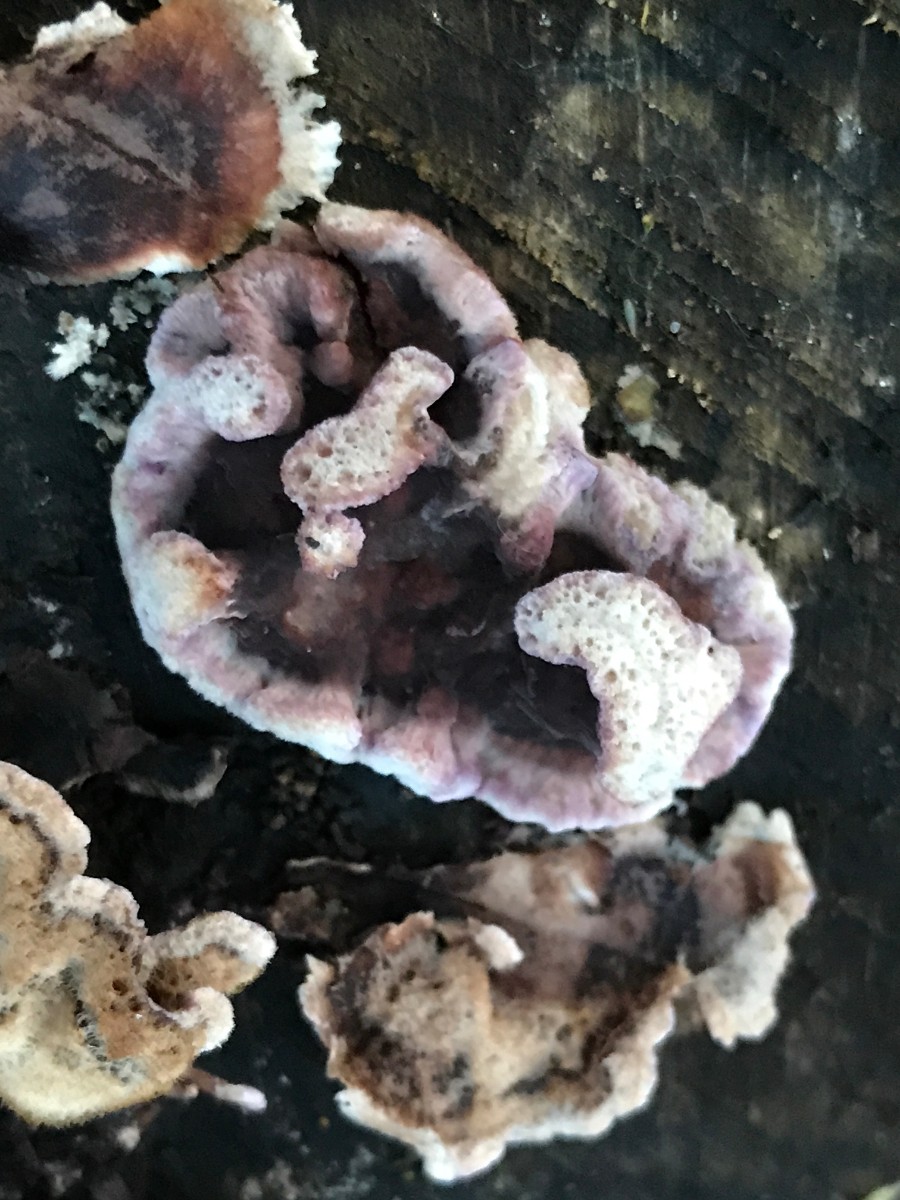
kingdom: Fungi
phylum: Basidiomycota
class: Agaricomycetes
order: Agaricales
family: Cyphellaceae
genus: Chondrostereum
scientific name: Chondrostereum purpureum
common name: purpurlædersvamp
